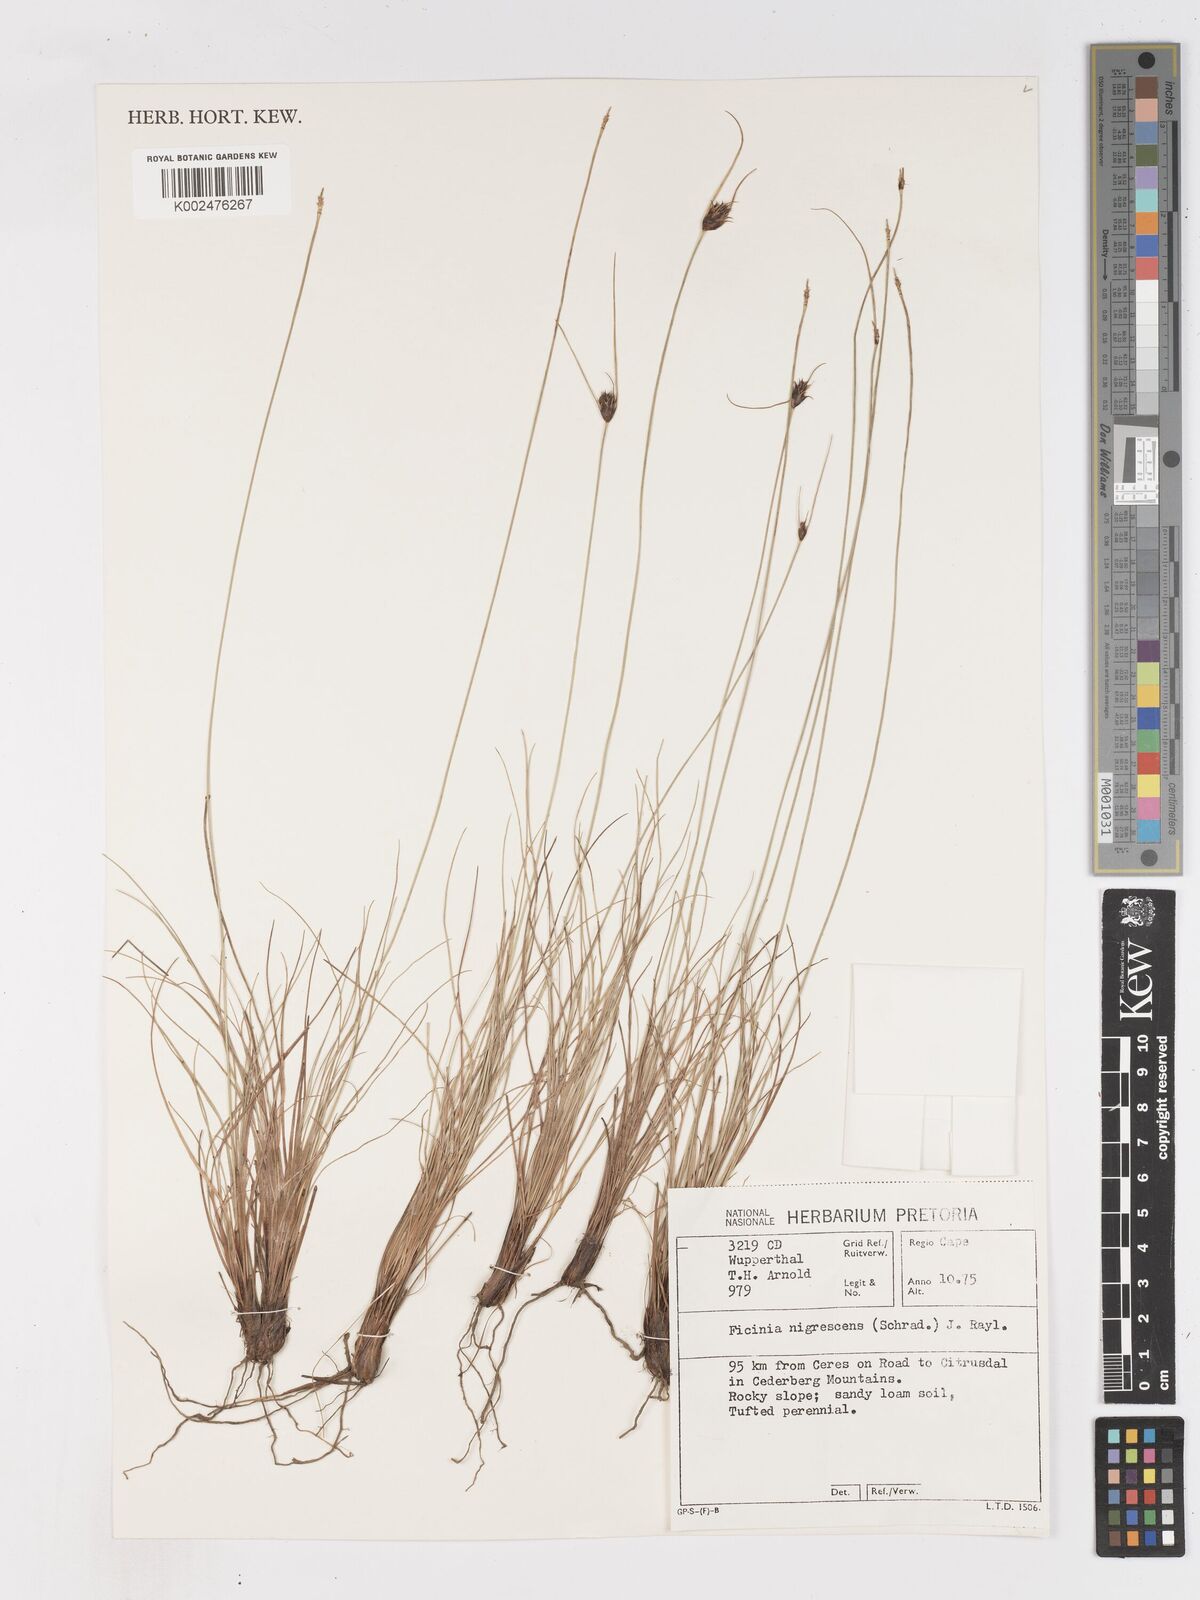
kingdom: Plantae
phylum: Tracheophyta
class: Liliopsida
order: Poales
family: Cyperaceae
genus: Ficinia
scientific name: Ficinia nigrescens
